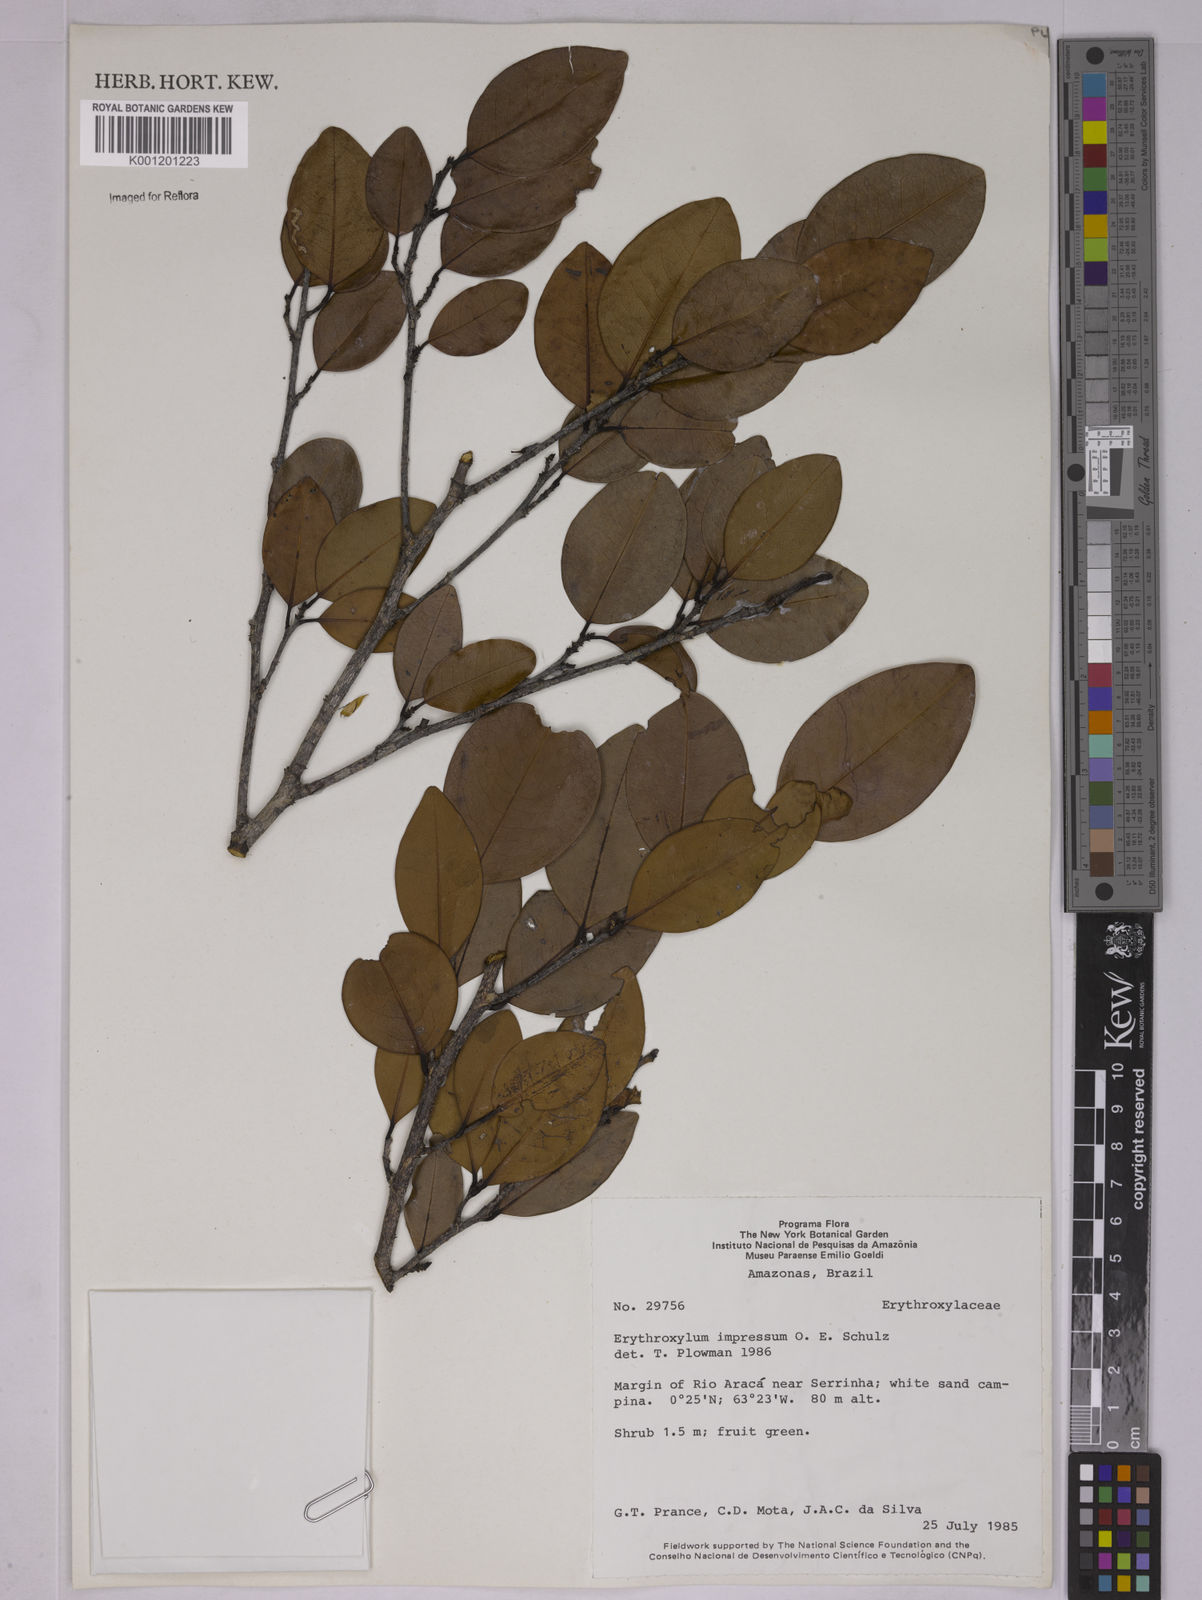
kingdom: Plantae
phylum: Tracheophyta
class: Magnoliopsida
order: Malpighiales
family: Erythroxylaceae
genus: Erythroxylum
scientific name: Erythroxylum impressum
